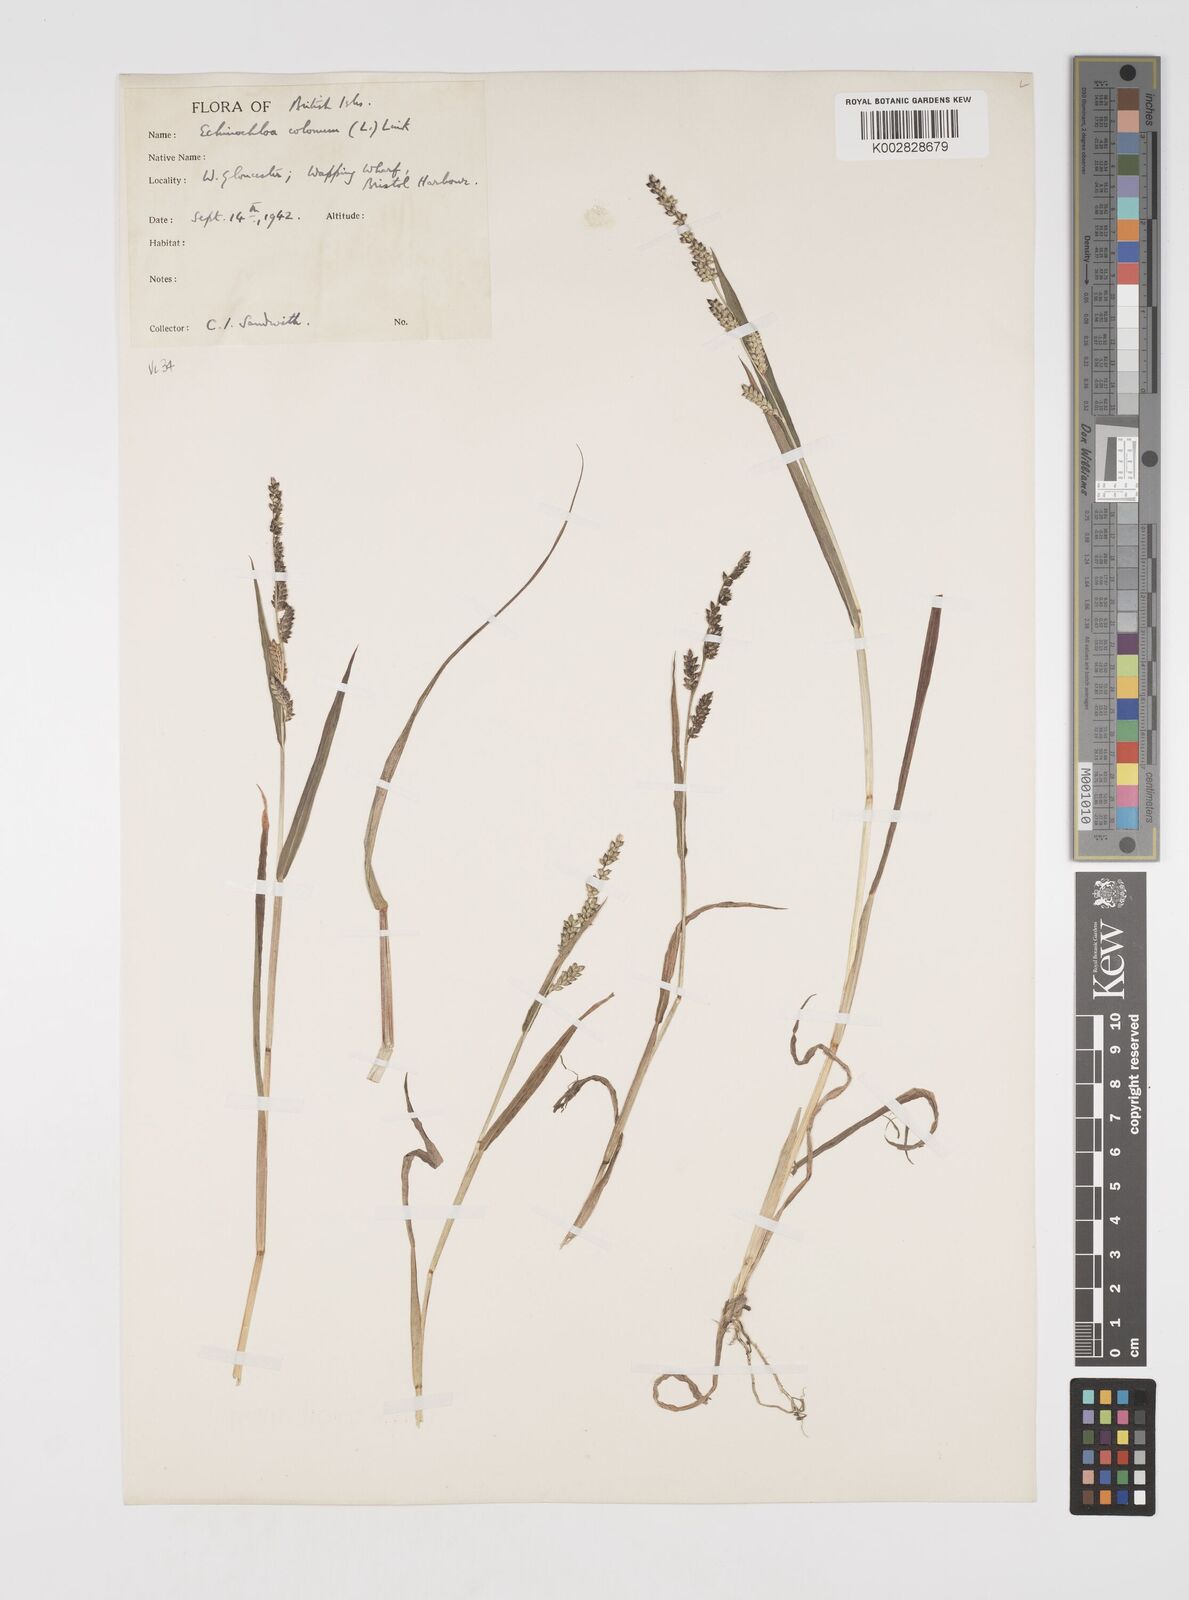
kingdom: Plantae
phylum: Tracheophyta
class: Liliopsida
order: Poales
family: Poaceae
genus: Echinochloa
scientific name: Echinochloa colonum
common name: Jungle rice
